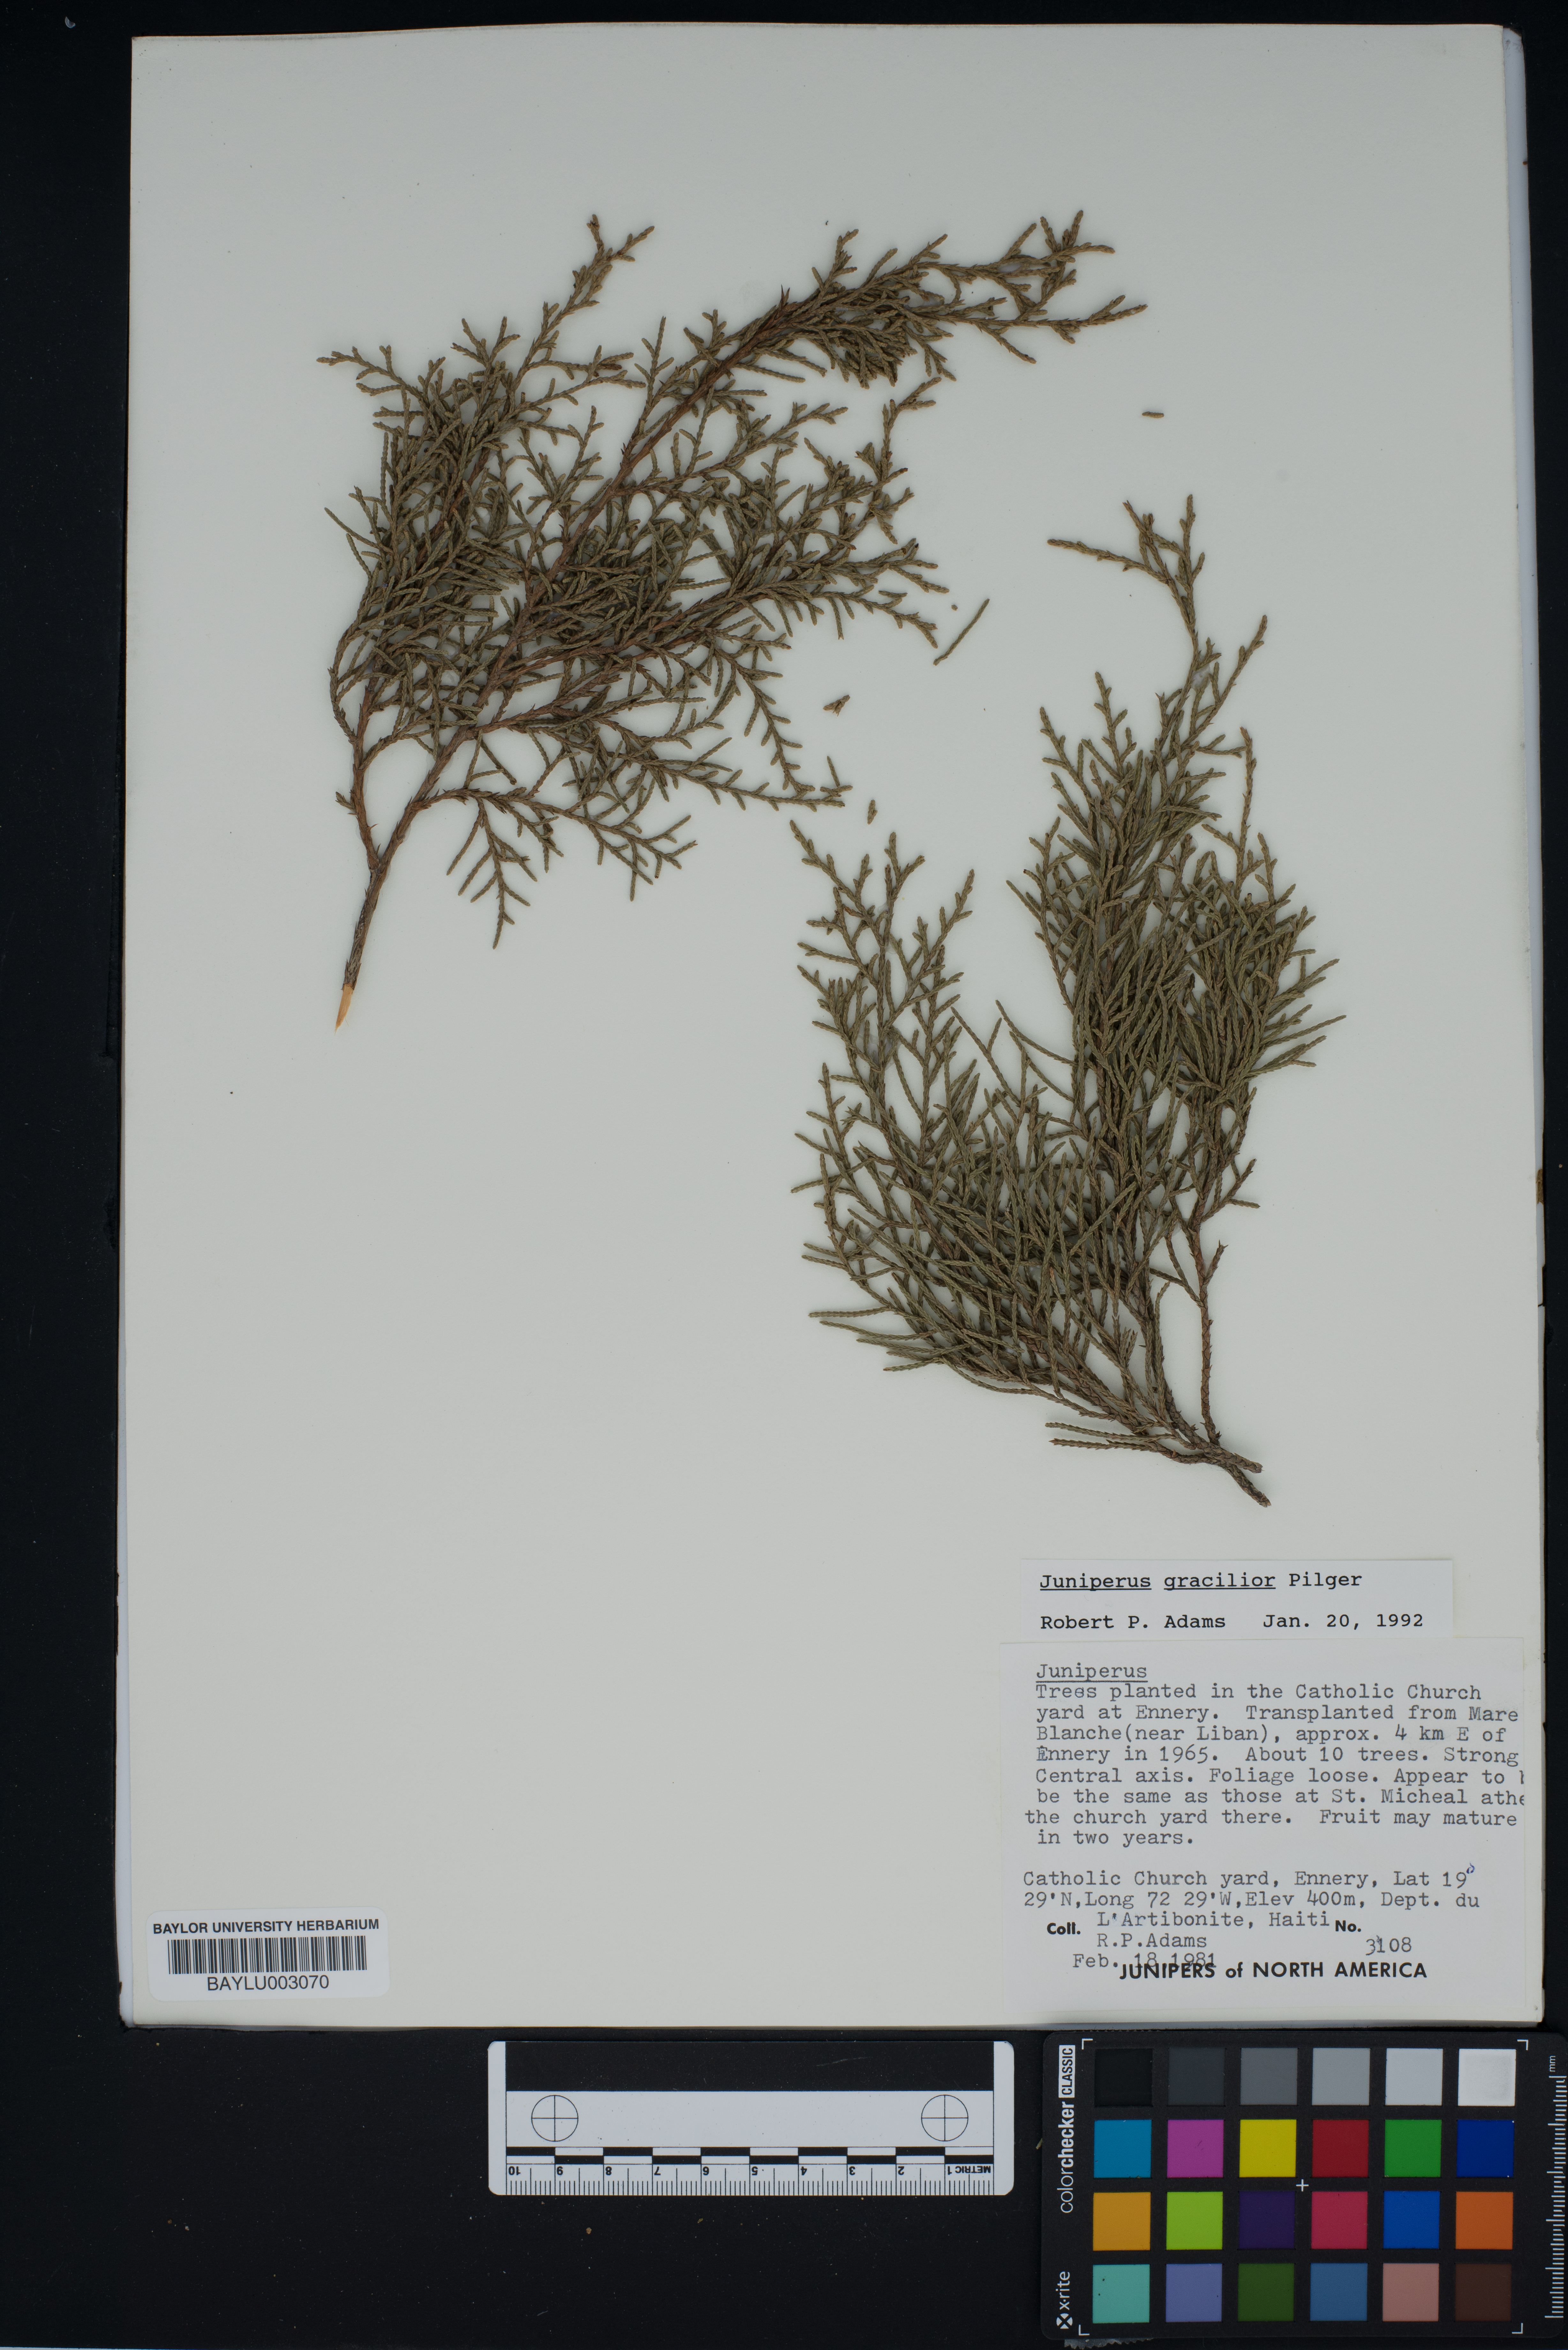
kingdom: Plantae
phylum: Tracheophyta
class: Pinopsida
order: Pinales
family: Cupressaceae
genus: Juniperus
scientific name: Juniperus gracilior
